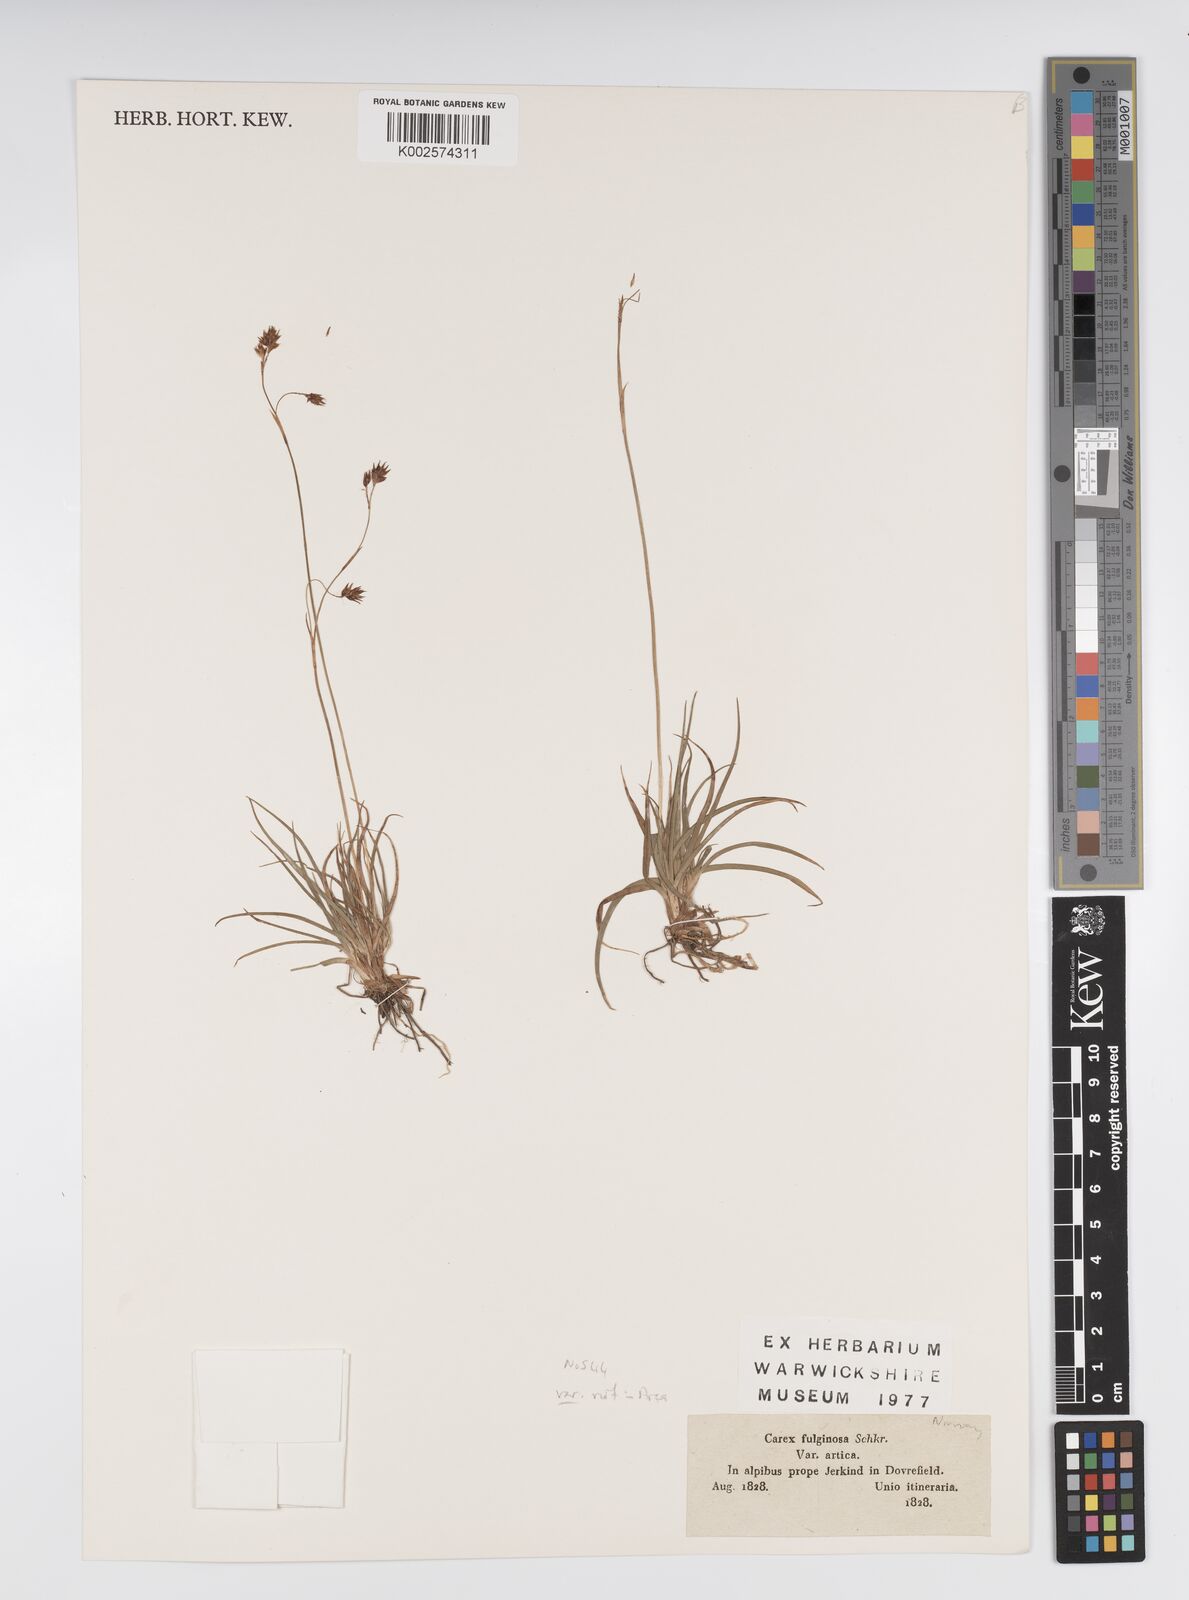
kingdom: Plantae
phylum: Tracheophyta
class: Liliopsida
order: Poales
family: Cyperaceae
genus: Carex
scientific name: Carex fuliginosa
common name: Few-flowered sedge
